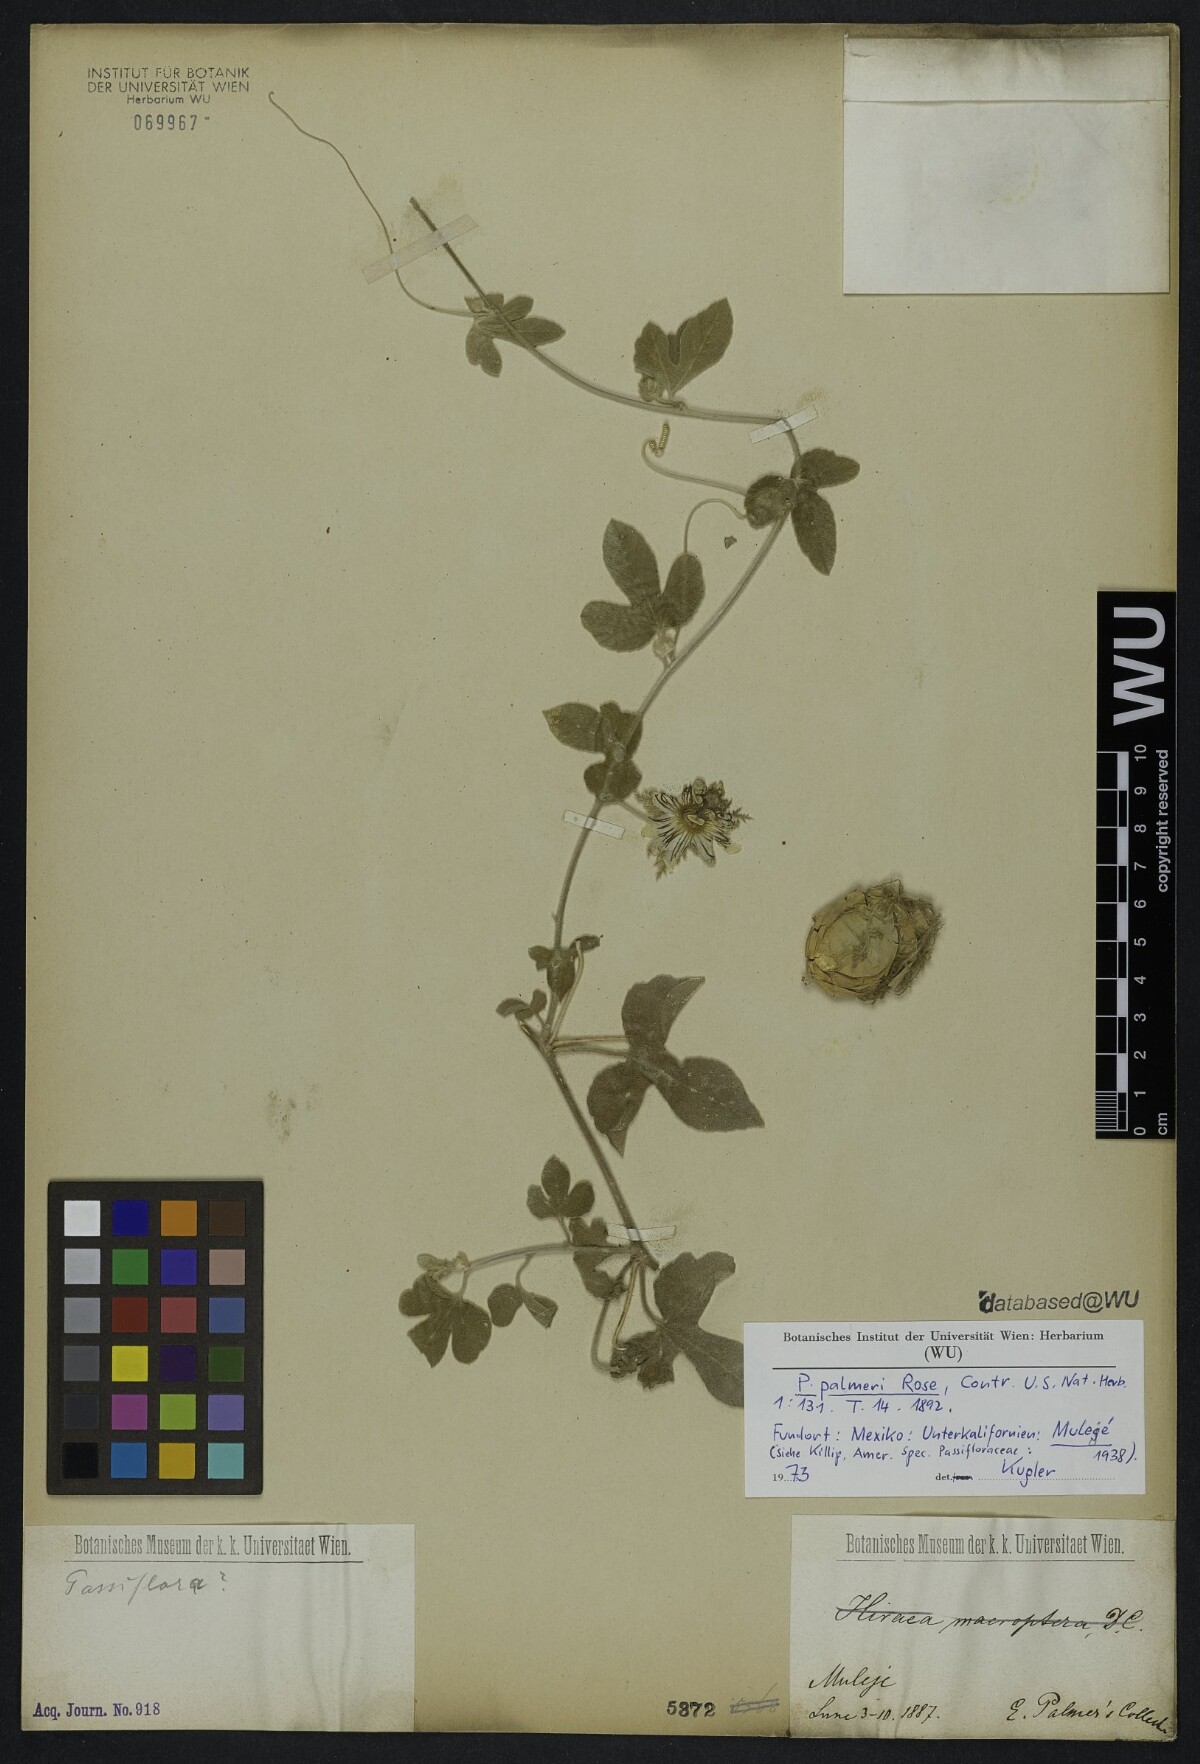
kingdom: Plantae
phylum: Tracheophyta
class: Magnoliopsida
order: Malpighiales
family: Passifloraceae
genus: Passiflora
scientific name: Passiflora palmeri
